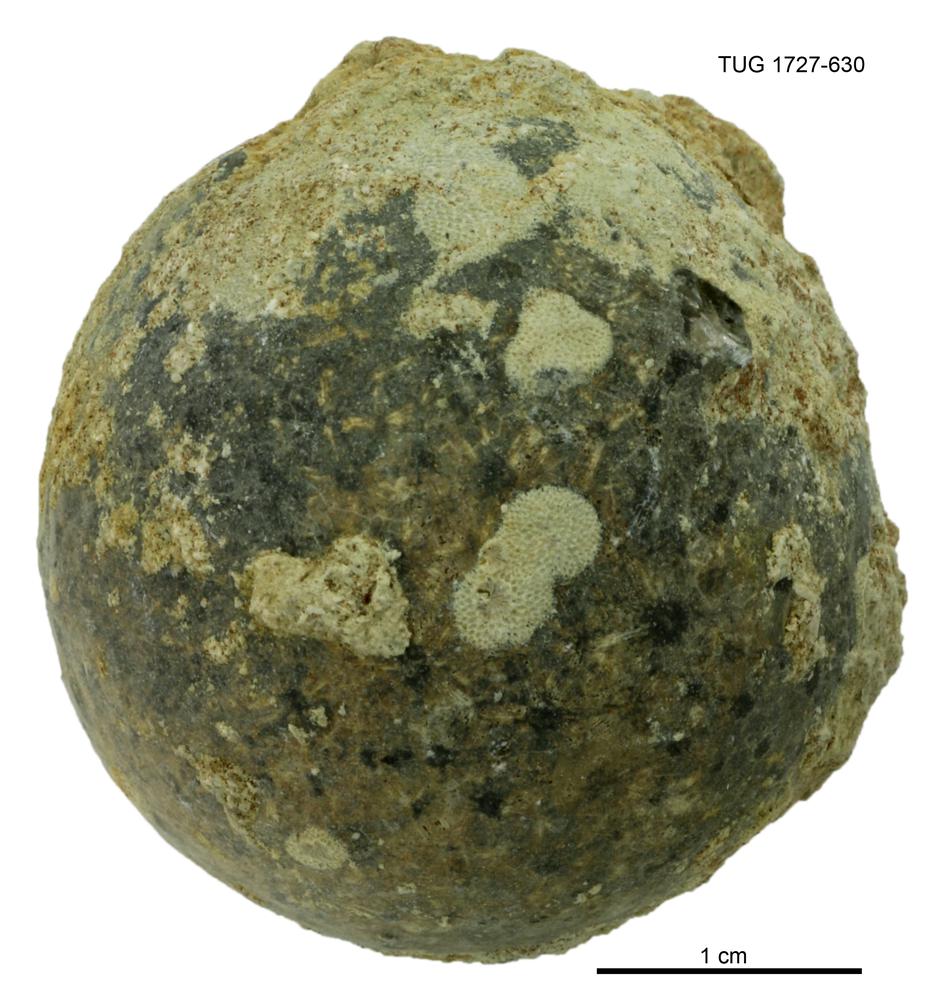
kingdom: Animalia
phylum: Echinodermata
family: Echinosphaeritidae
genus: Echinosphaerites
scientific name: Echinosphaerites Echinus aurantium
